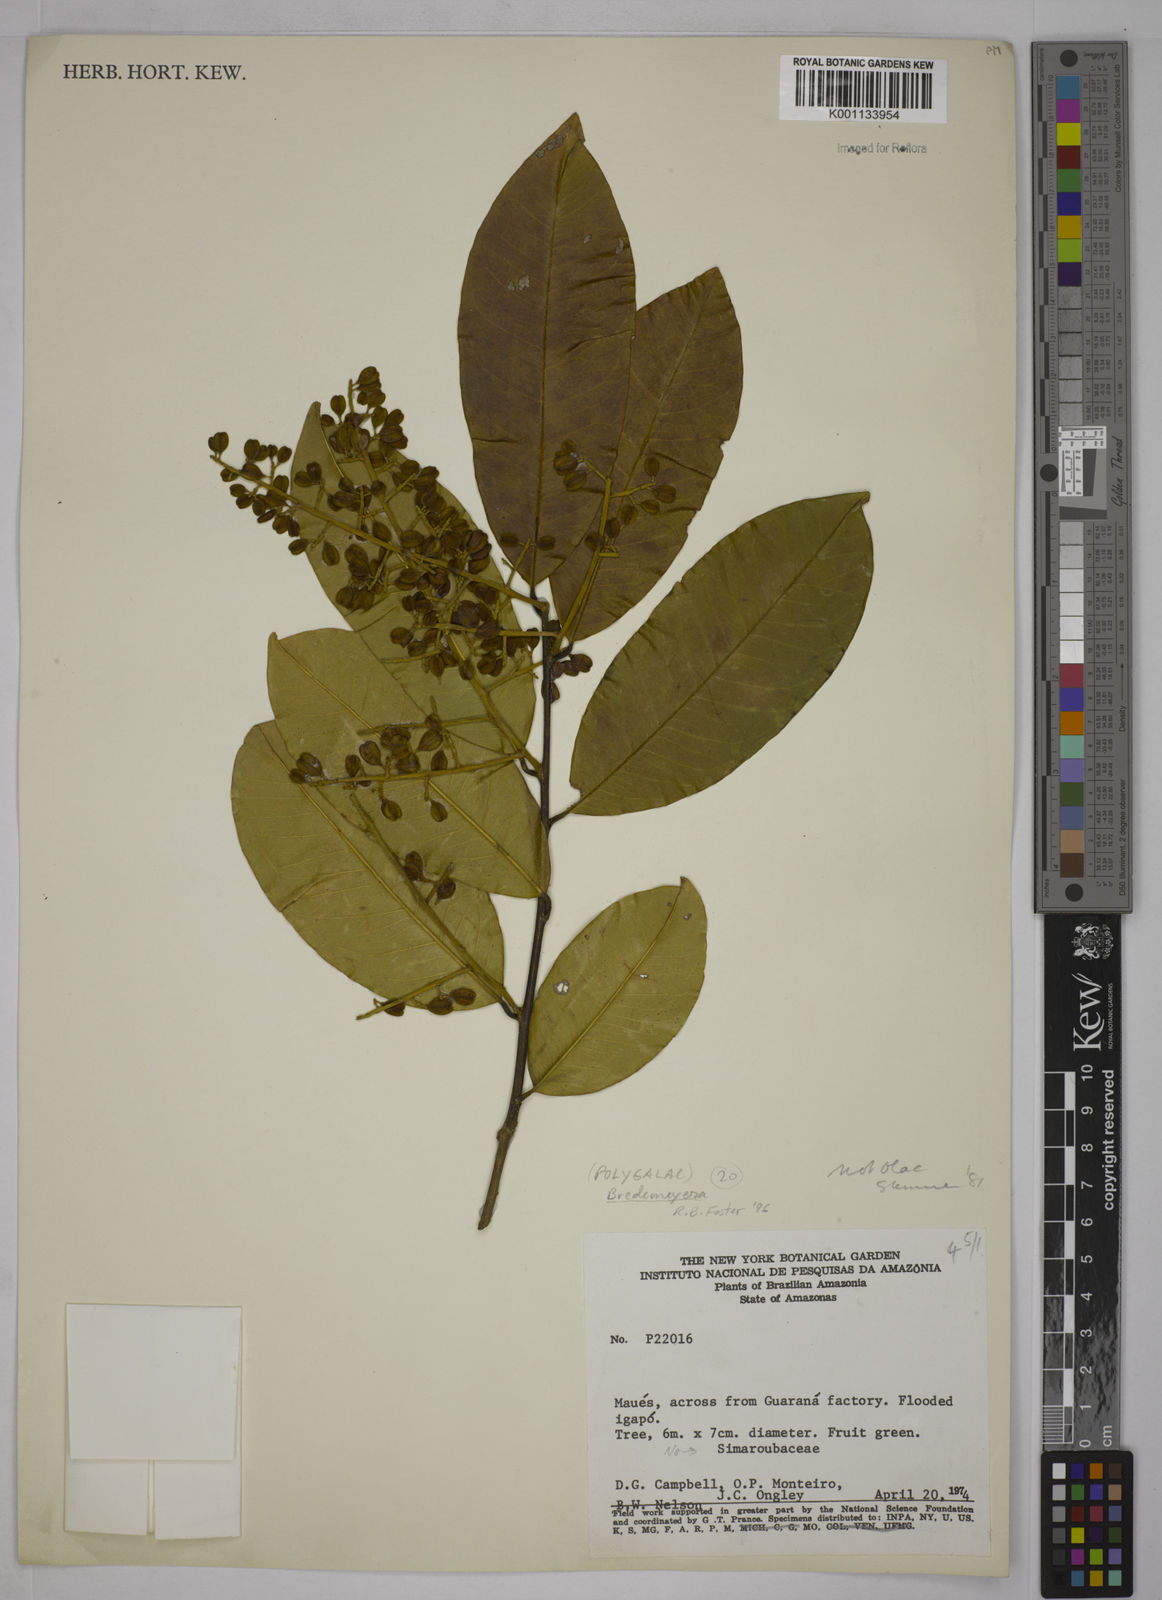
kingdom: Plantae
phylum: Tracheophyta
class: Magnoliopsida
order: Fabales
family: Polygalaceae
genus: Bredemeyera
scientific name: Bredemeyera
